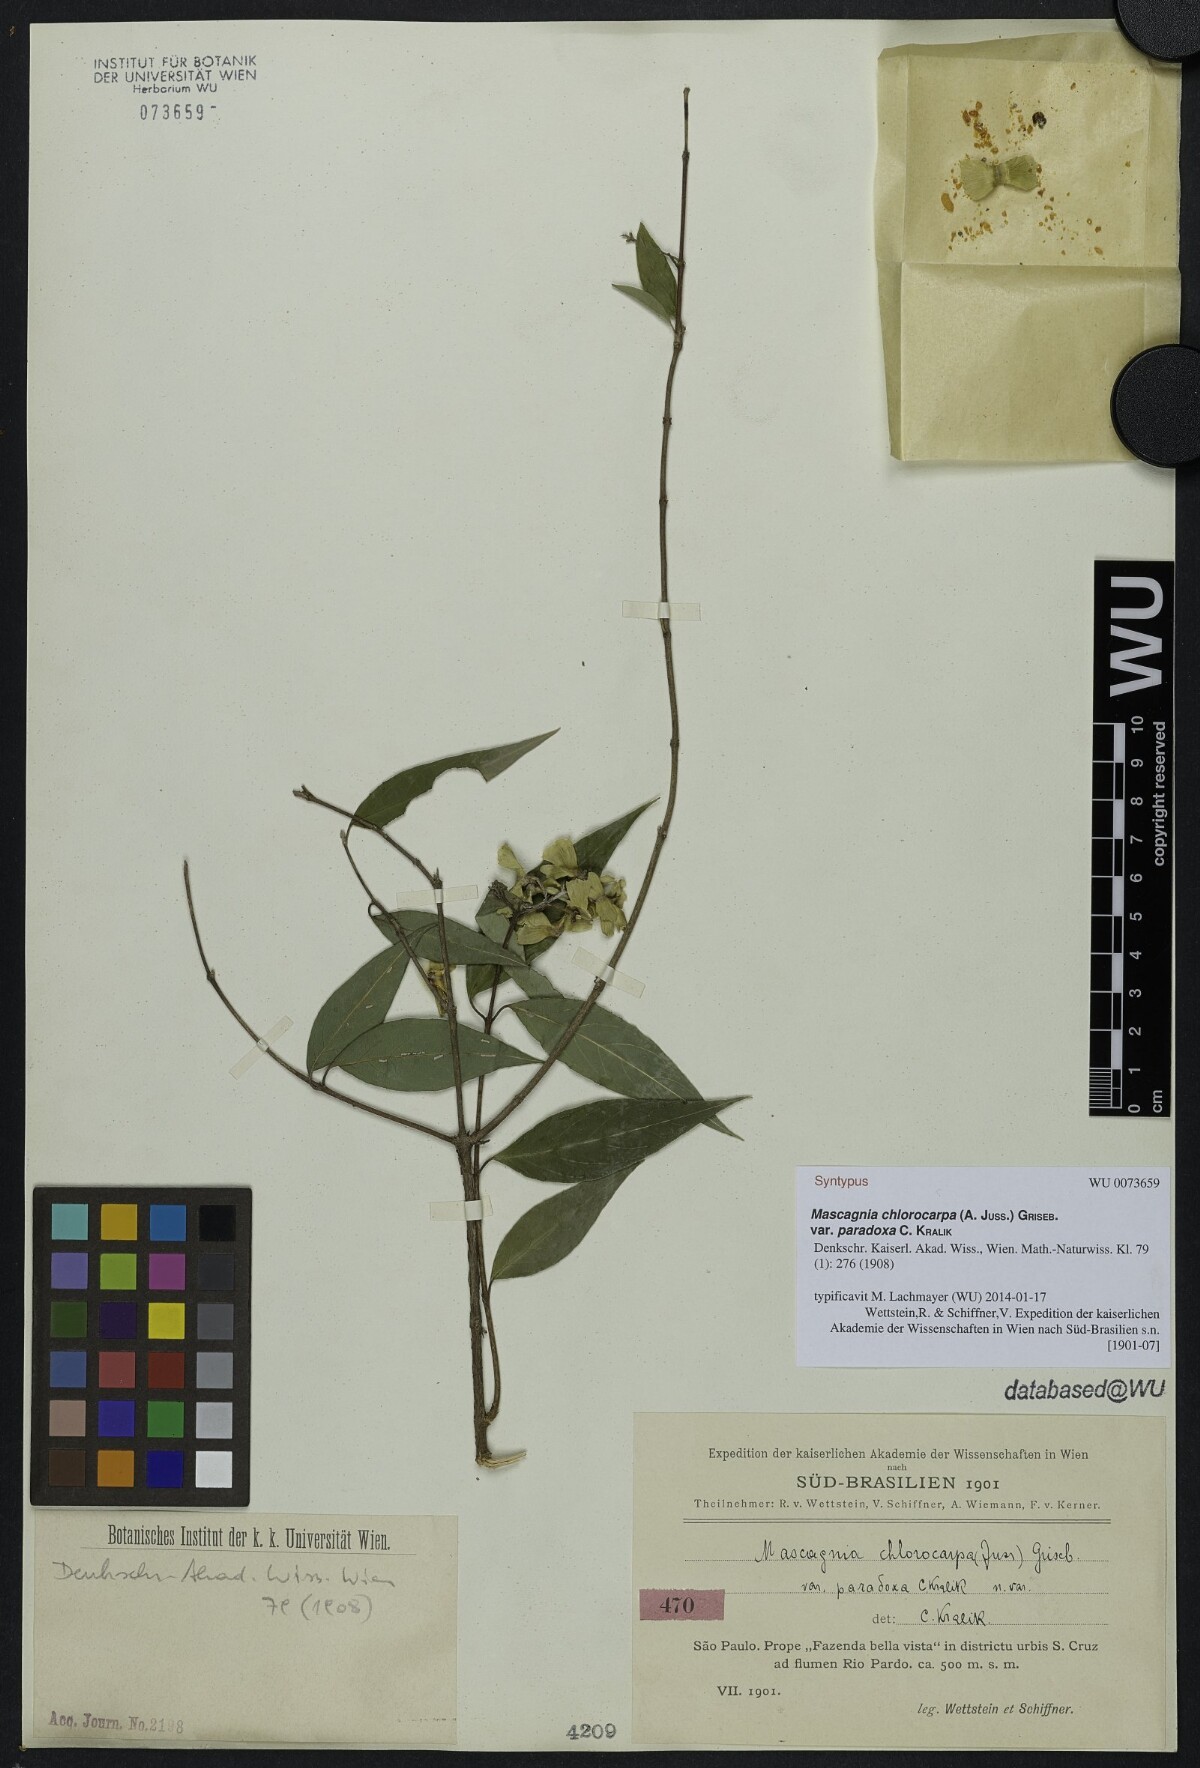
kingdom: Plantae
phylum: Tracheophyta
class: Magnoliopsida
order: Malpighiales
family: Malpighiaceae
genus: Carolus
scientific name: Carolus chlorocarpus
